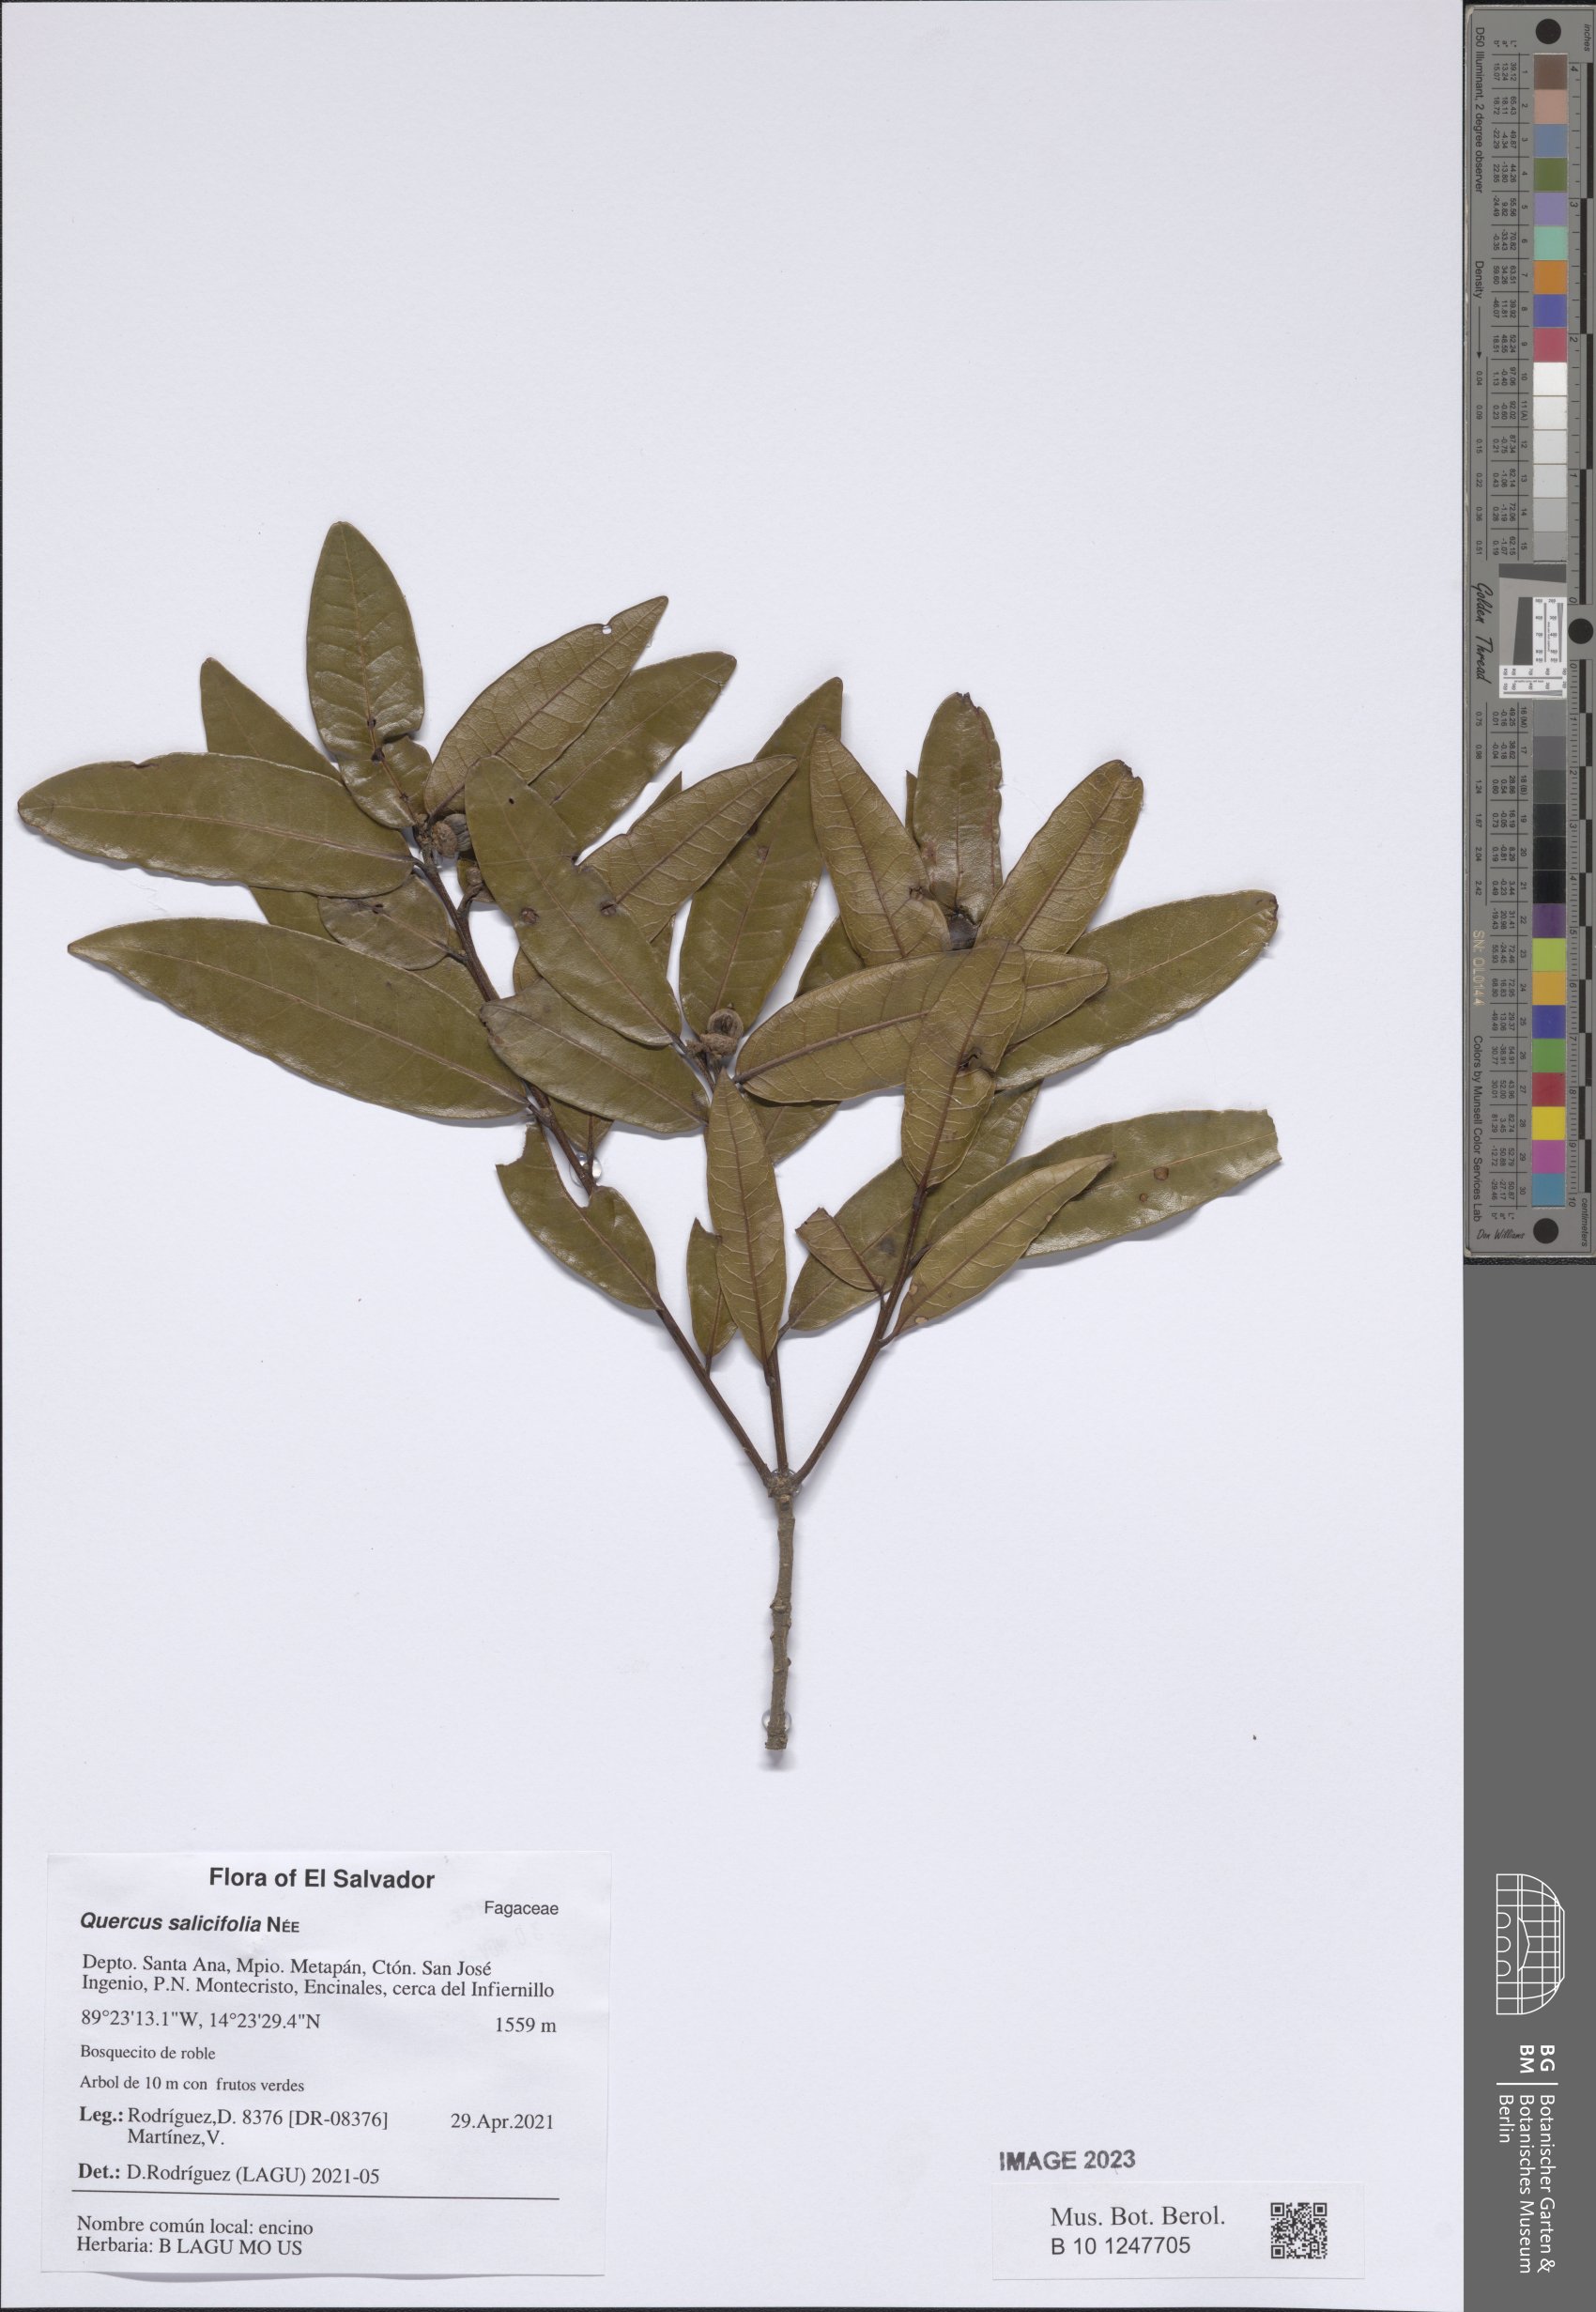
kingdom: Plantae
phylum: Tracheophyta
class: Magnoliopsida
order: Fagales
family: Fagaceae
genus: Quercus
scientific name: Quercus salicifolia
